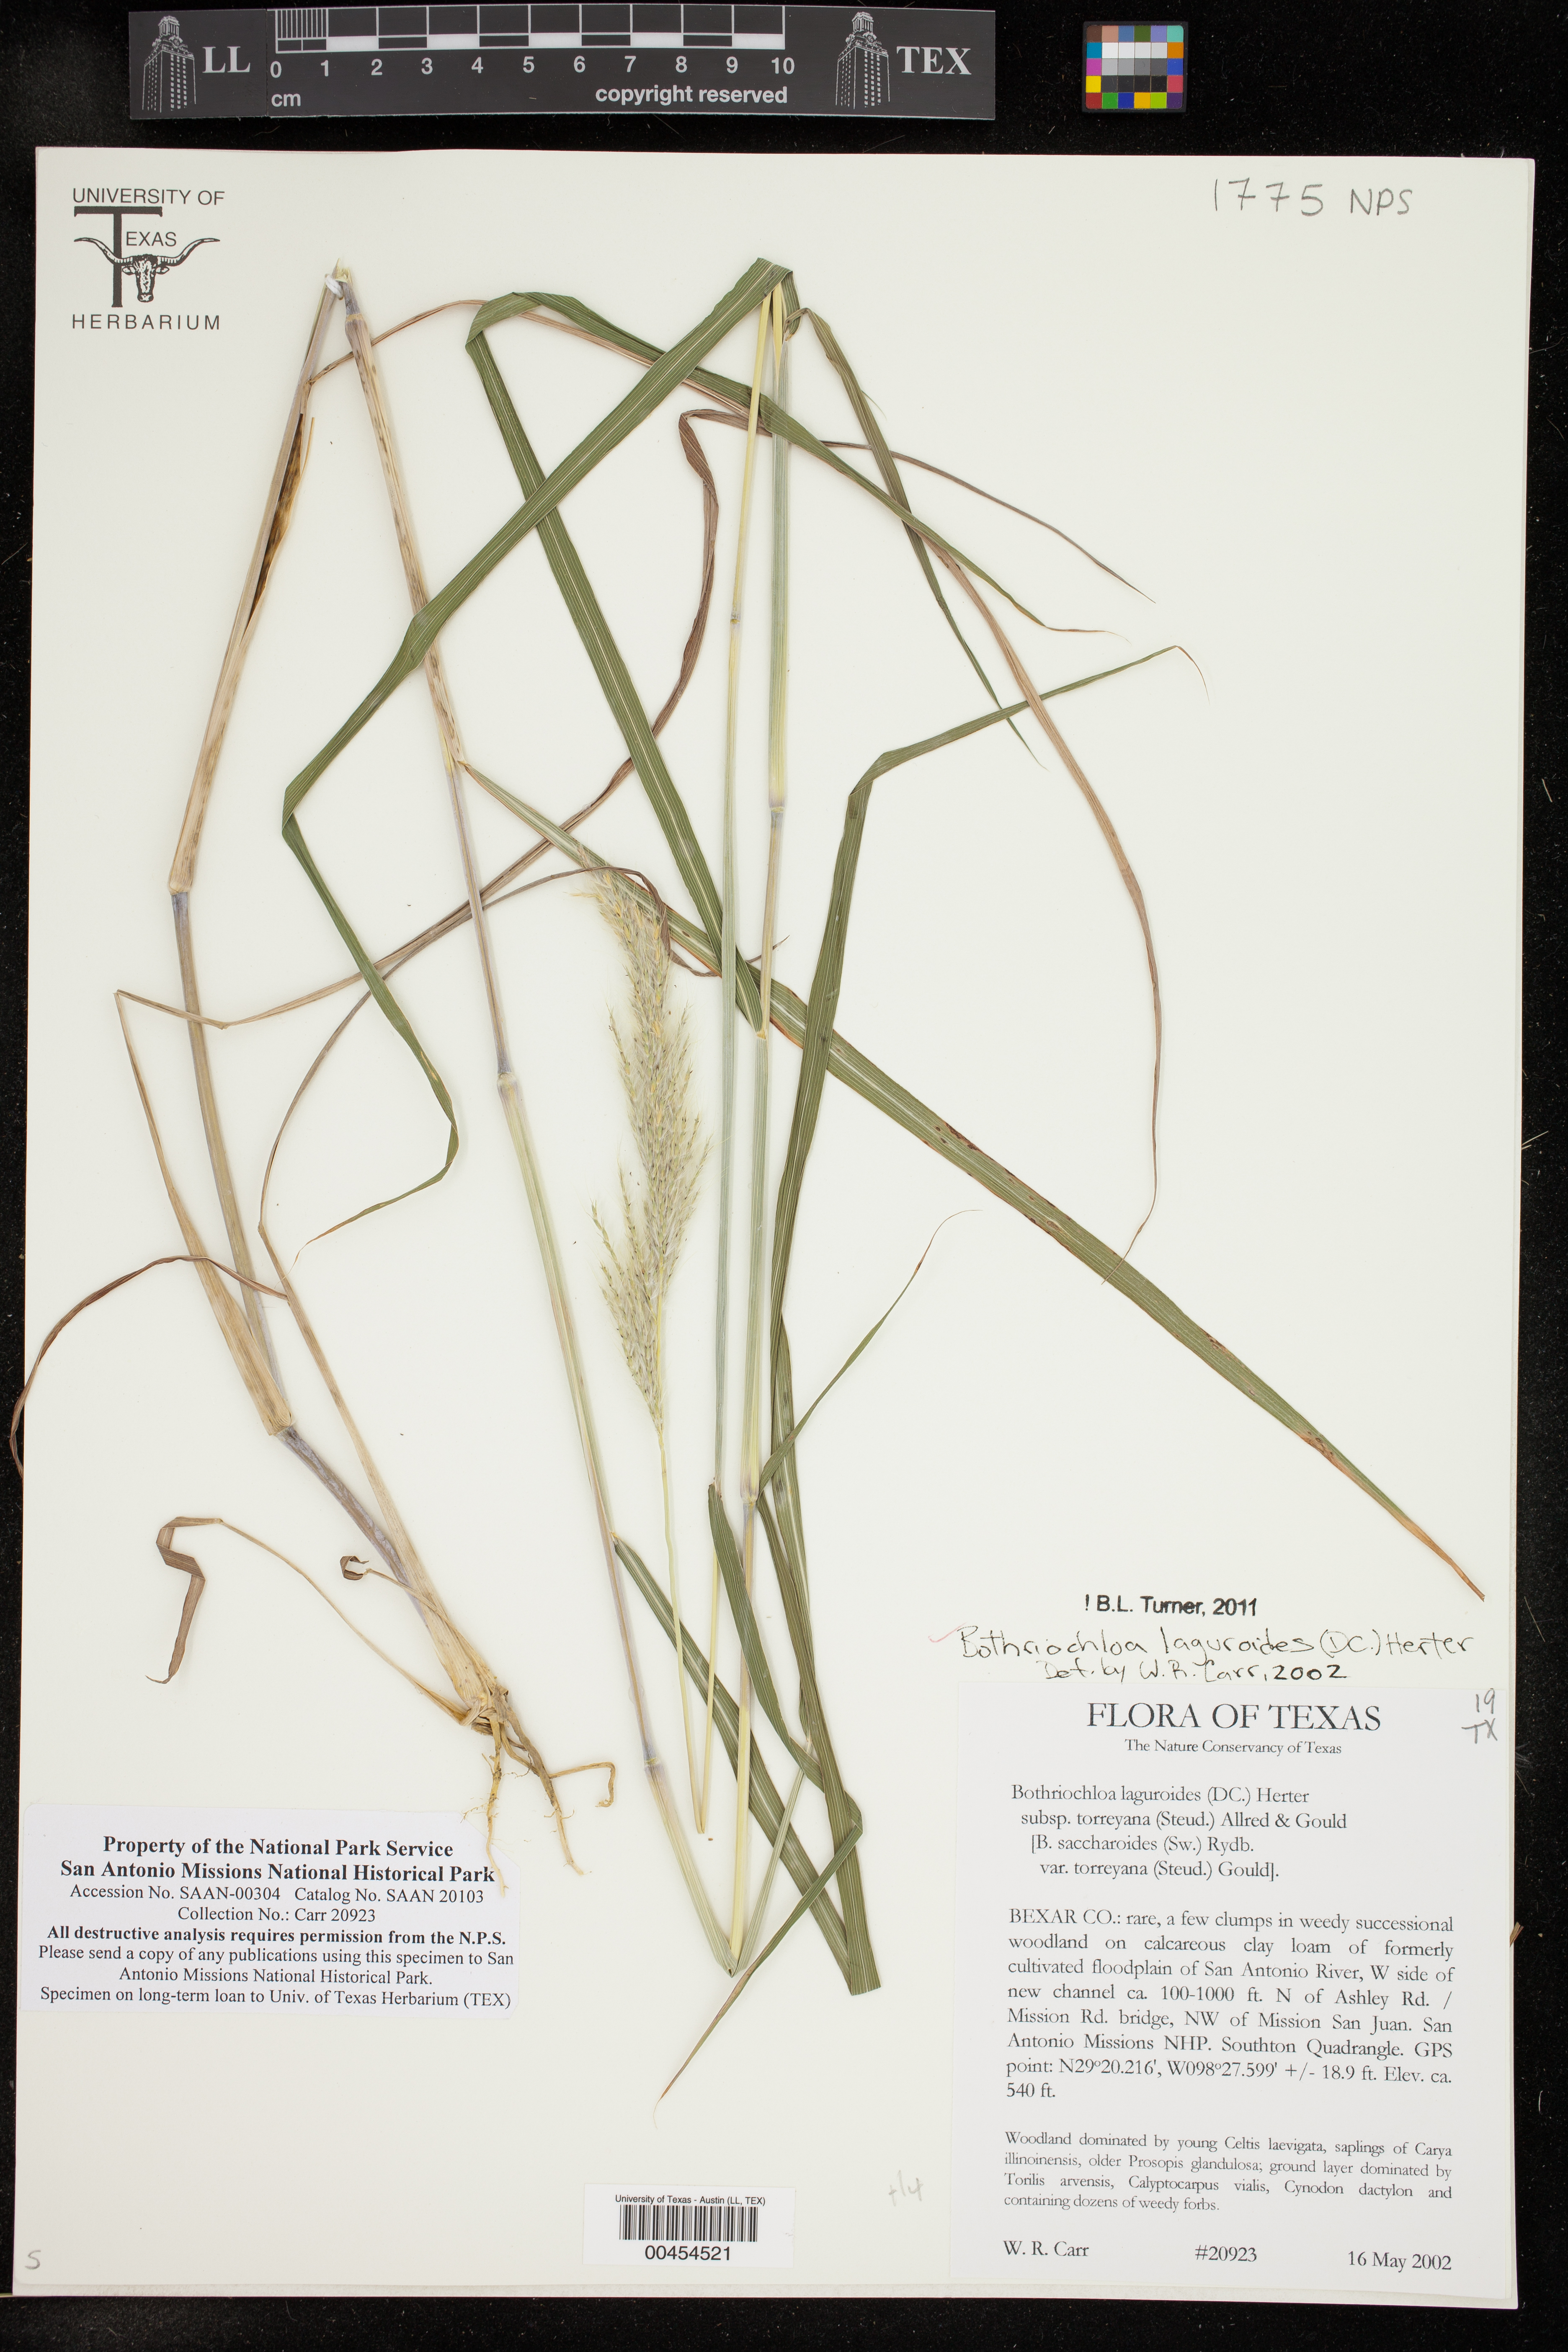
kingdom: Plantae
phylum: Tracheophyta
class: Liliopsida
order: Poales
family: Poaceae
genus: Bothriochloa
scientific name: Bothriochloa laguroides
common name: Silver bluestem
